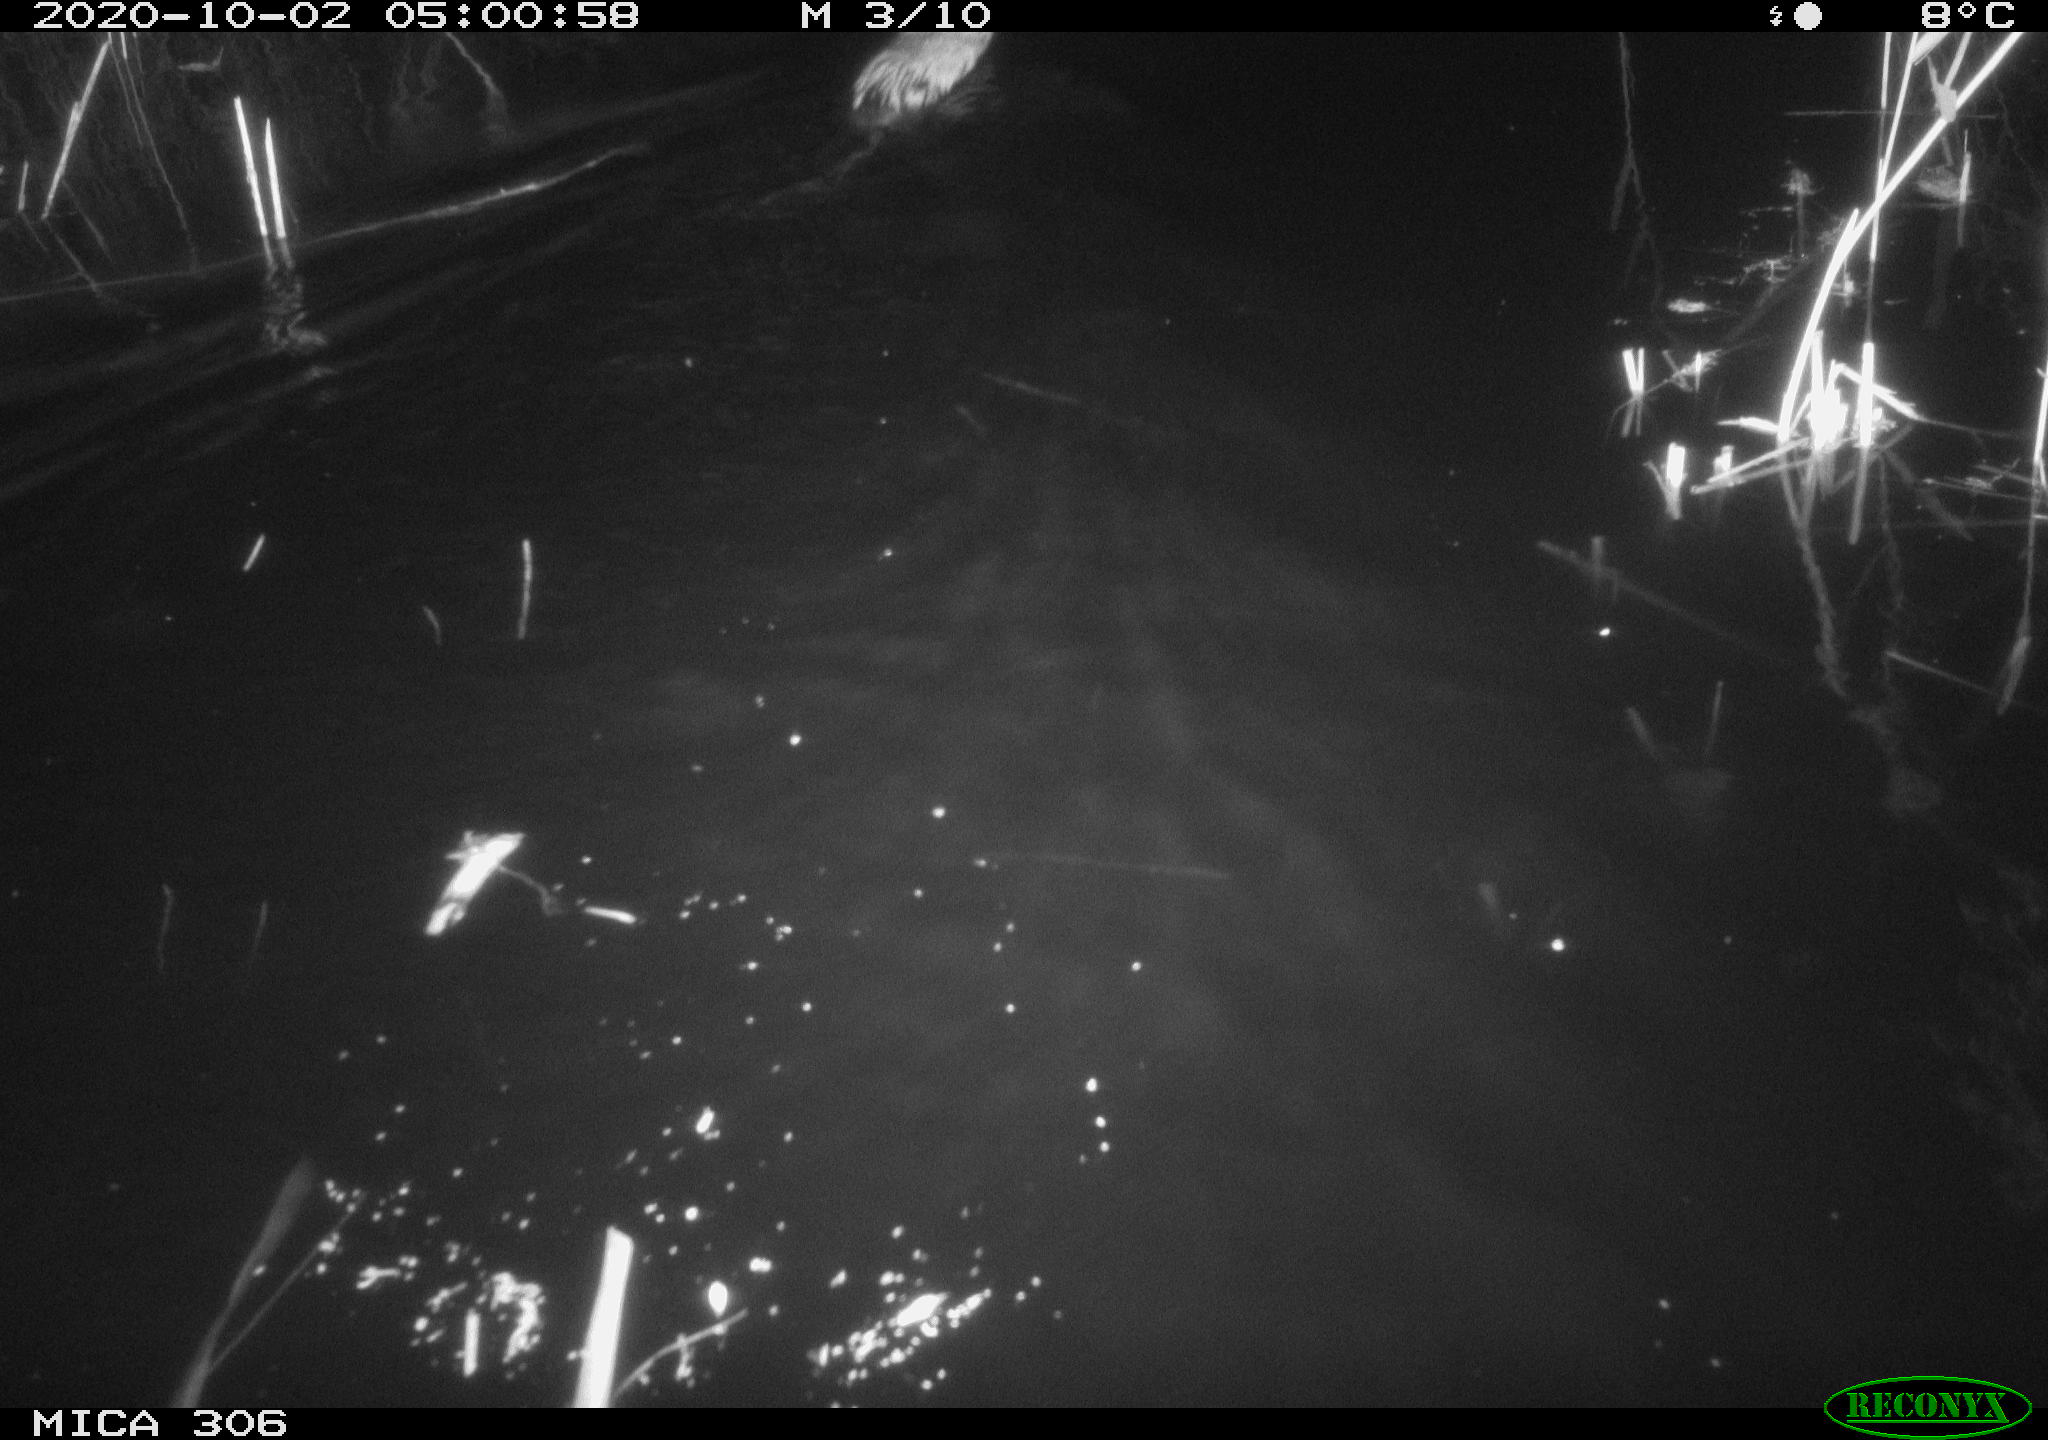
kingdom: Animalia
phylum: Chordata
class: Mammalia
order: Rodentia
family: Cricetidae
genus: Ondatra
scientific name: Ondatra zibethicus
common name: Muskrat
